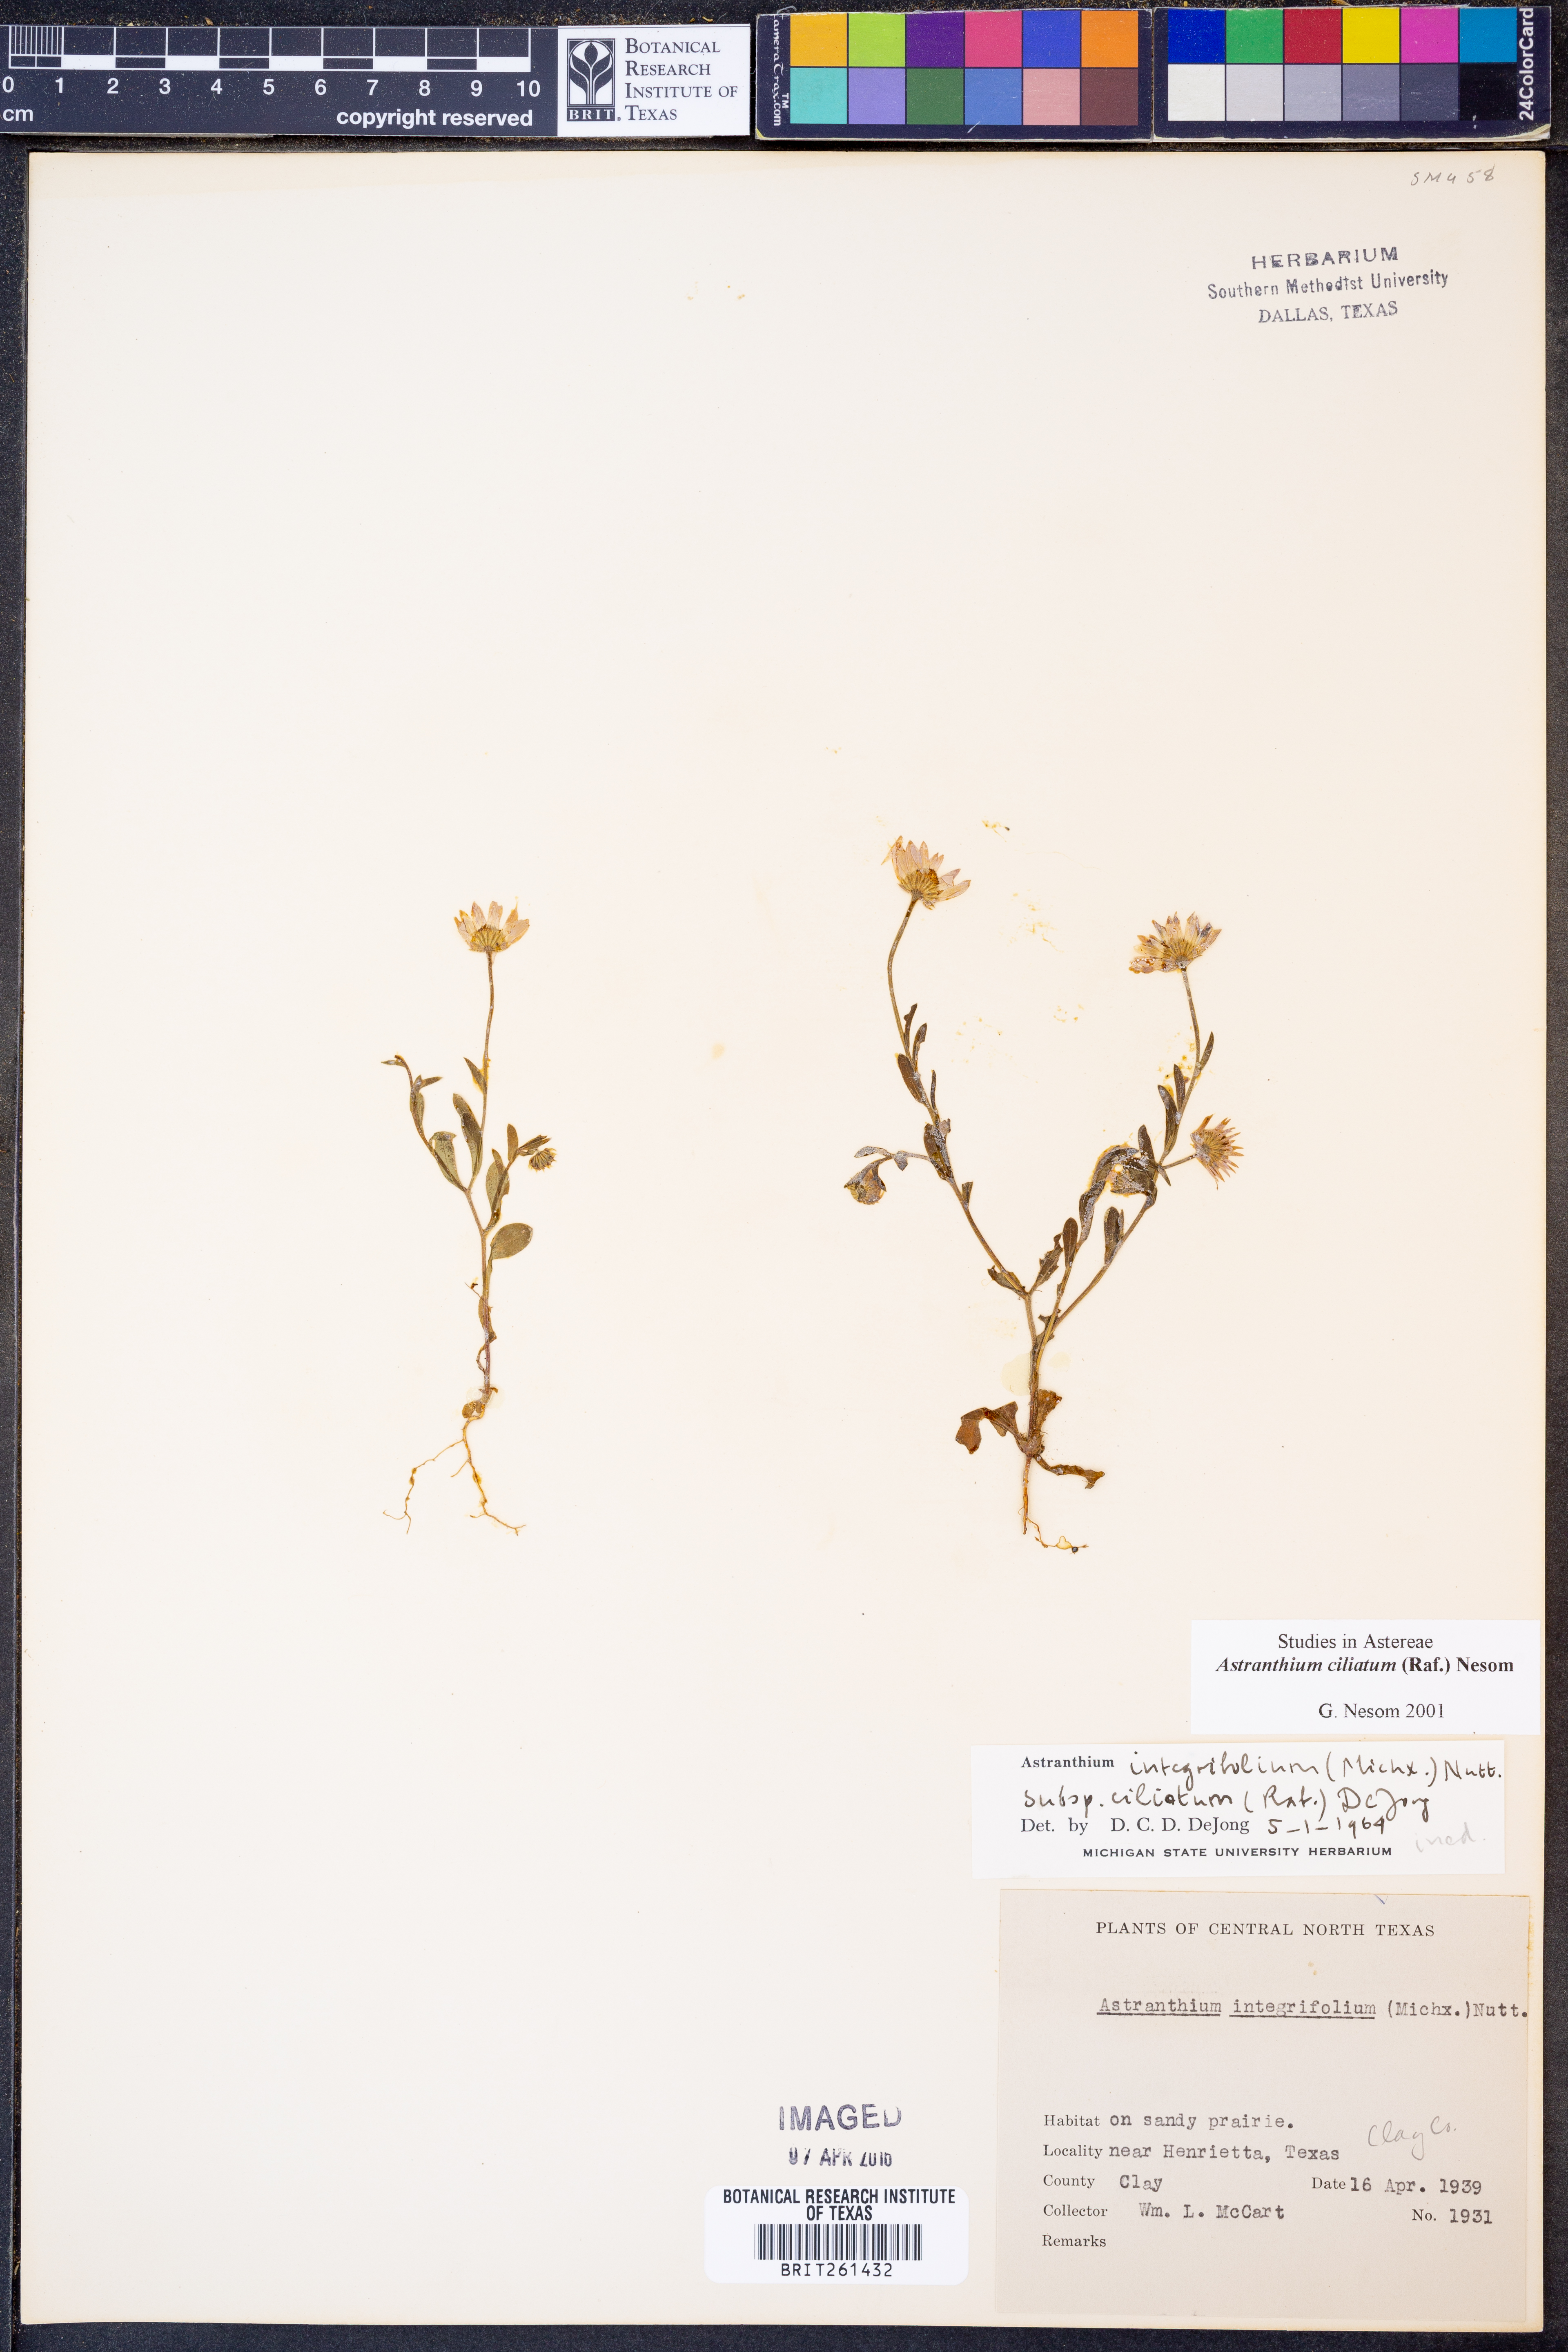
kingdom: Plantae
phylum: Tracheophyta
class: Magnoliopsida
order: Asterales
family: Asteraceae
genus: Astranthium
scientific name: Astranthium ciliatum
